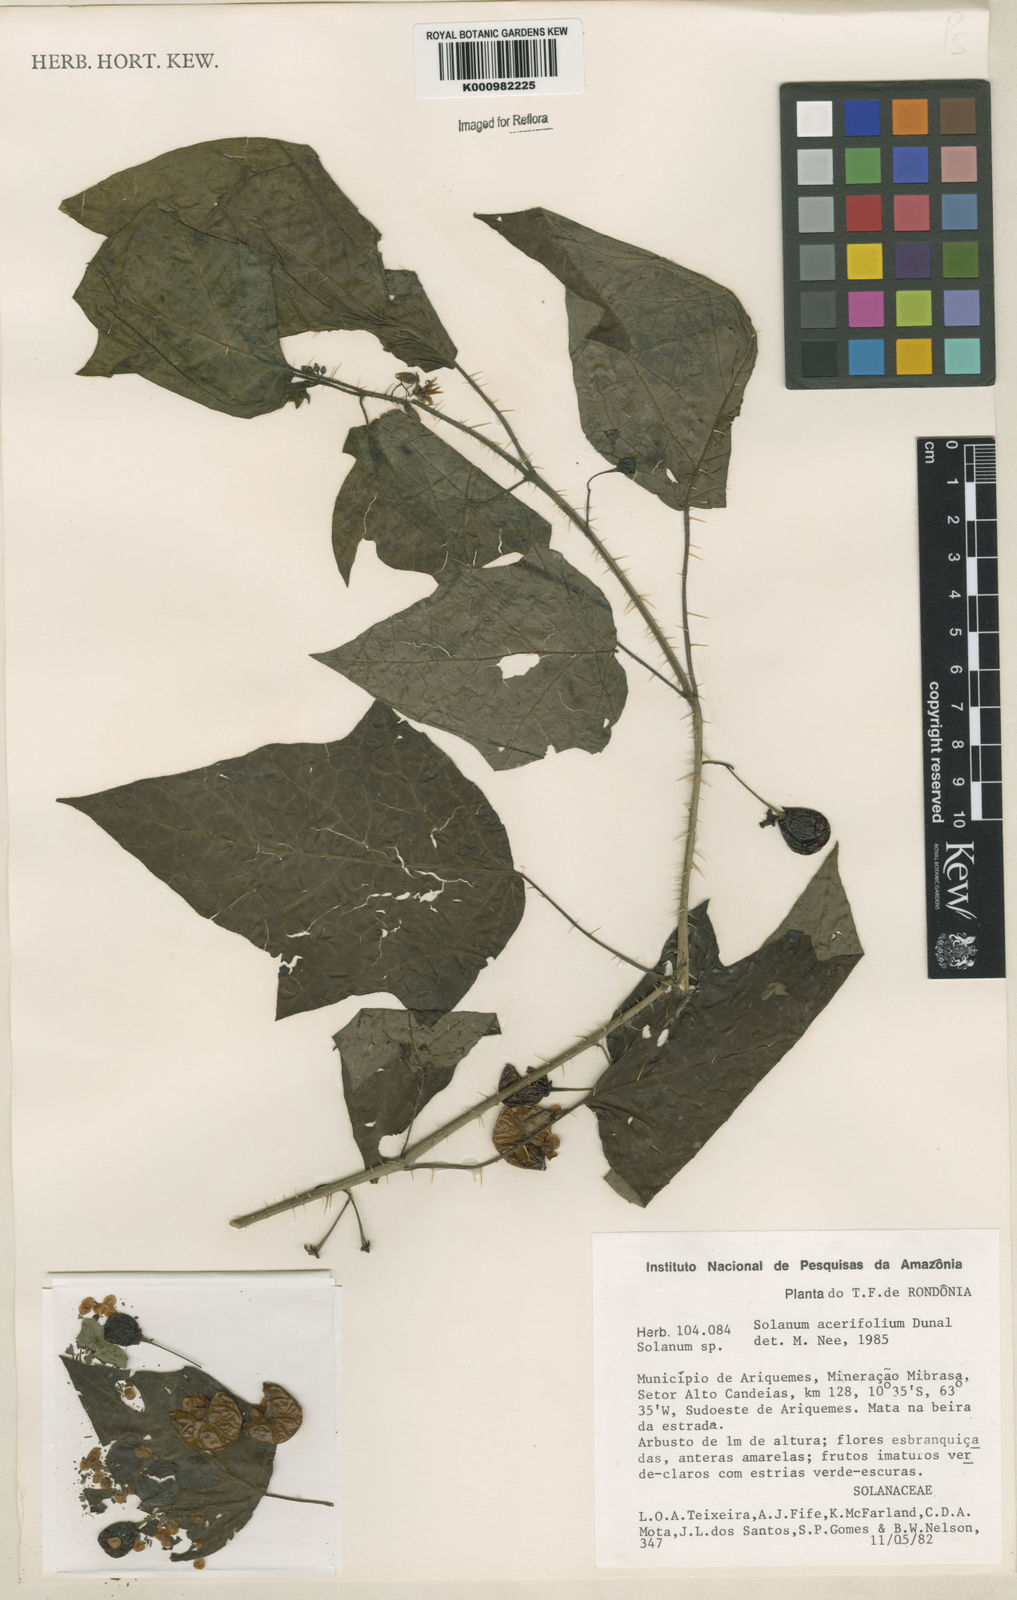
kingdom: Plantae
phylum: Tracheophyta
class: Magnoliopsida
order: Solanales
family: Solanaceae
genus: Solanum
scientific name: Solanum acerifolium
